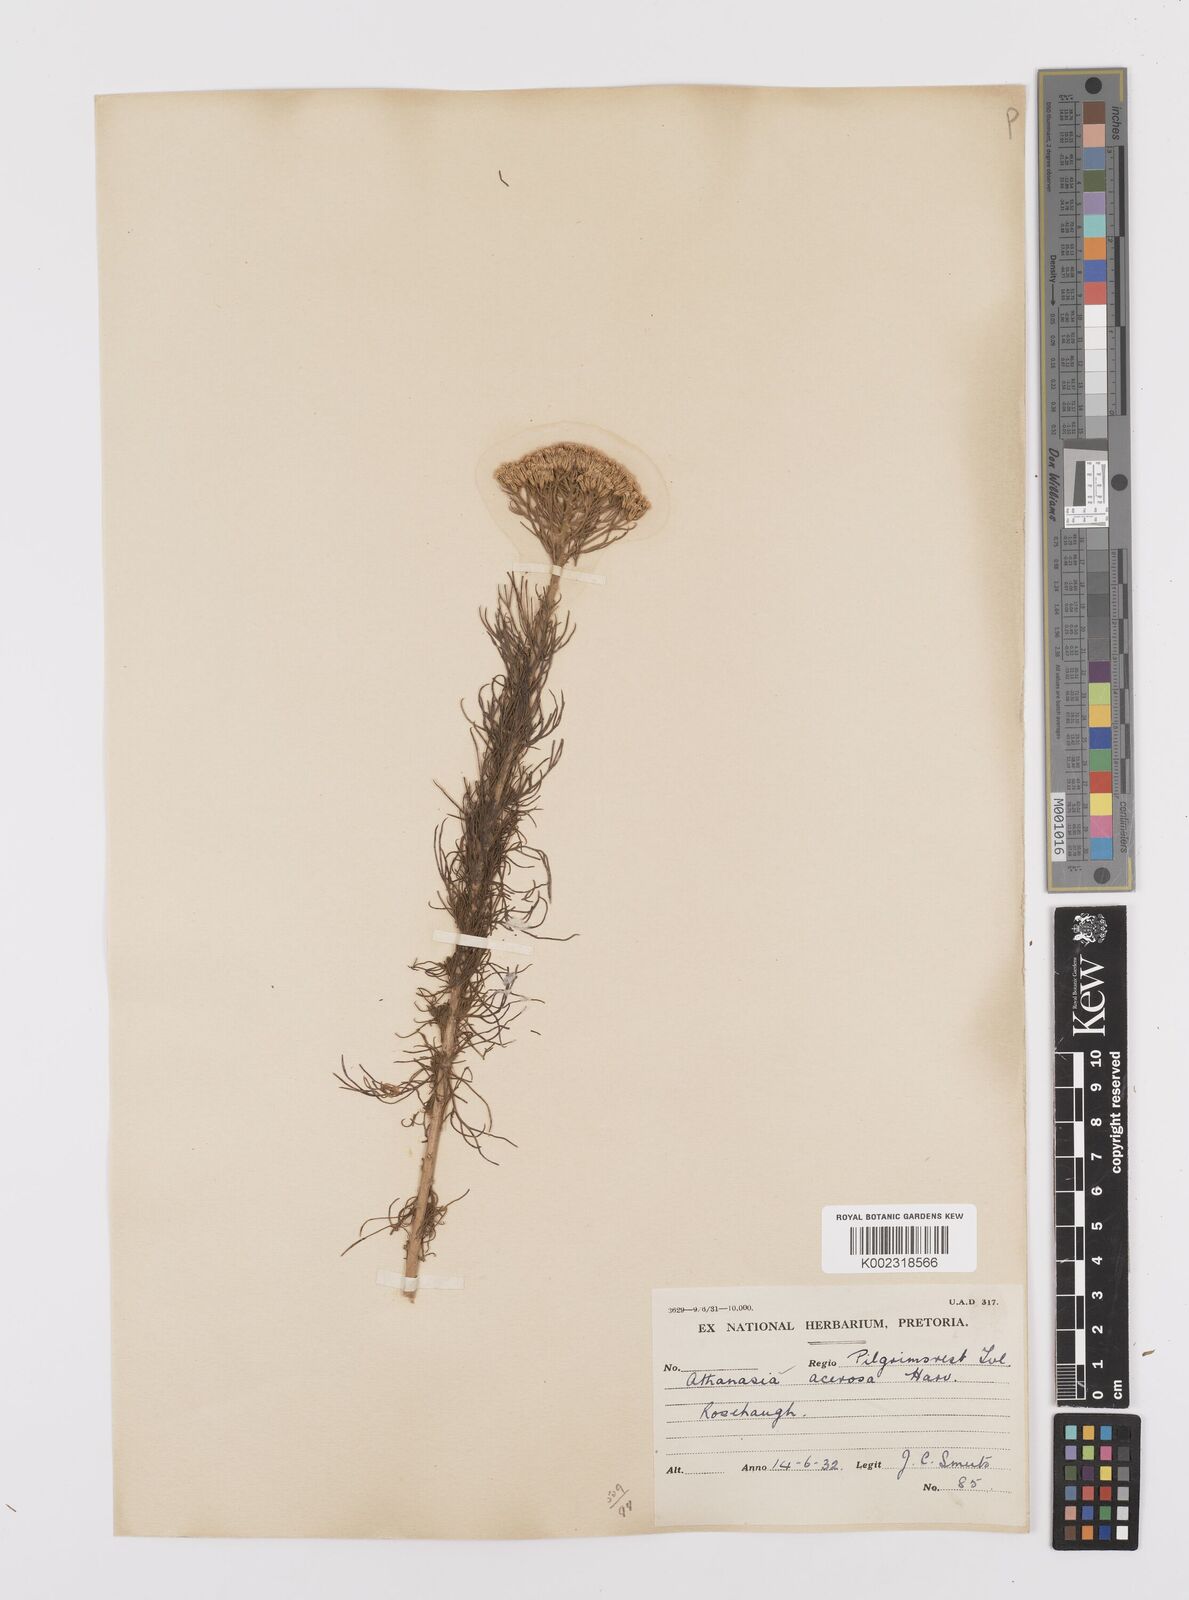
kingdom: Plantae
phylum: Tracheophyta
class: Magnoliopsida
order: Asterales
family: Asteraceae
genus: Phymaspermum
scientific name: Phymaspermum acerosum
